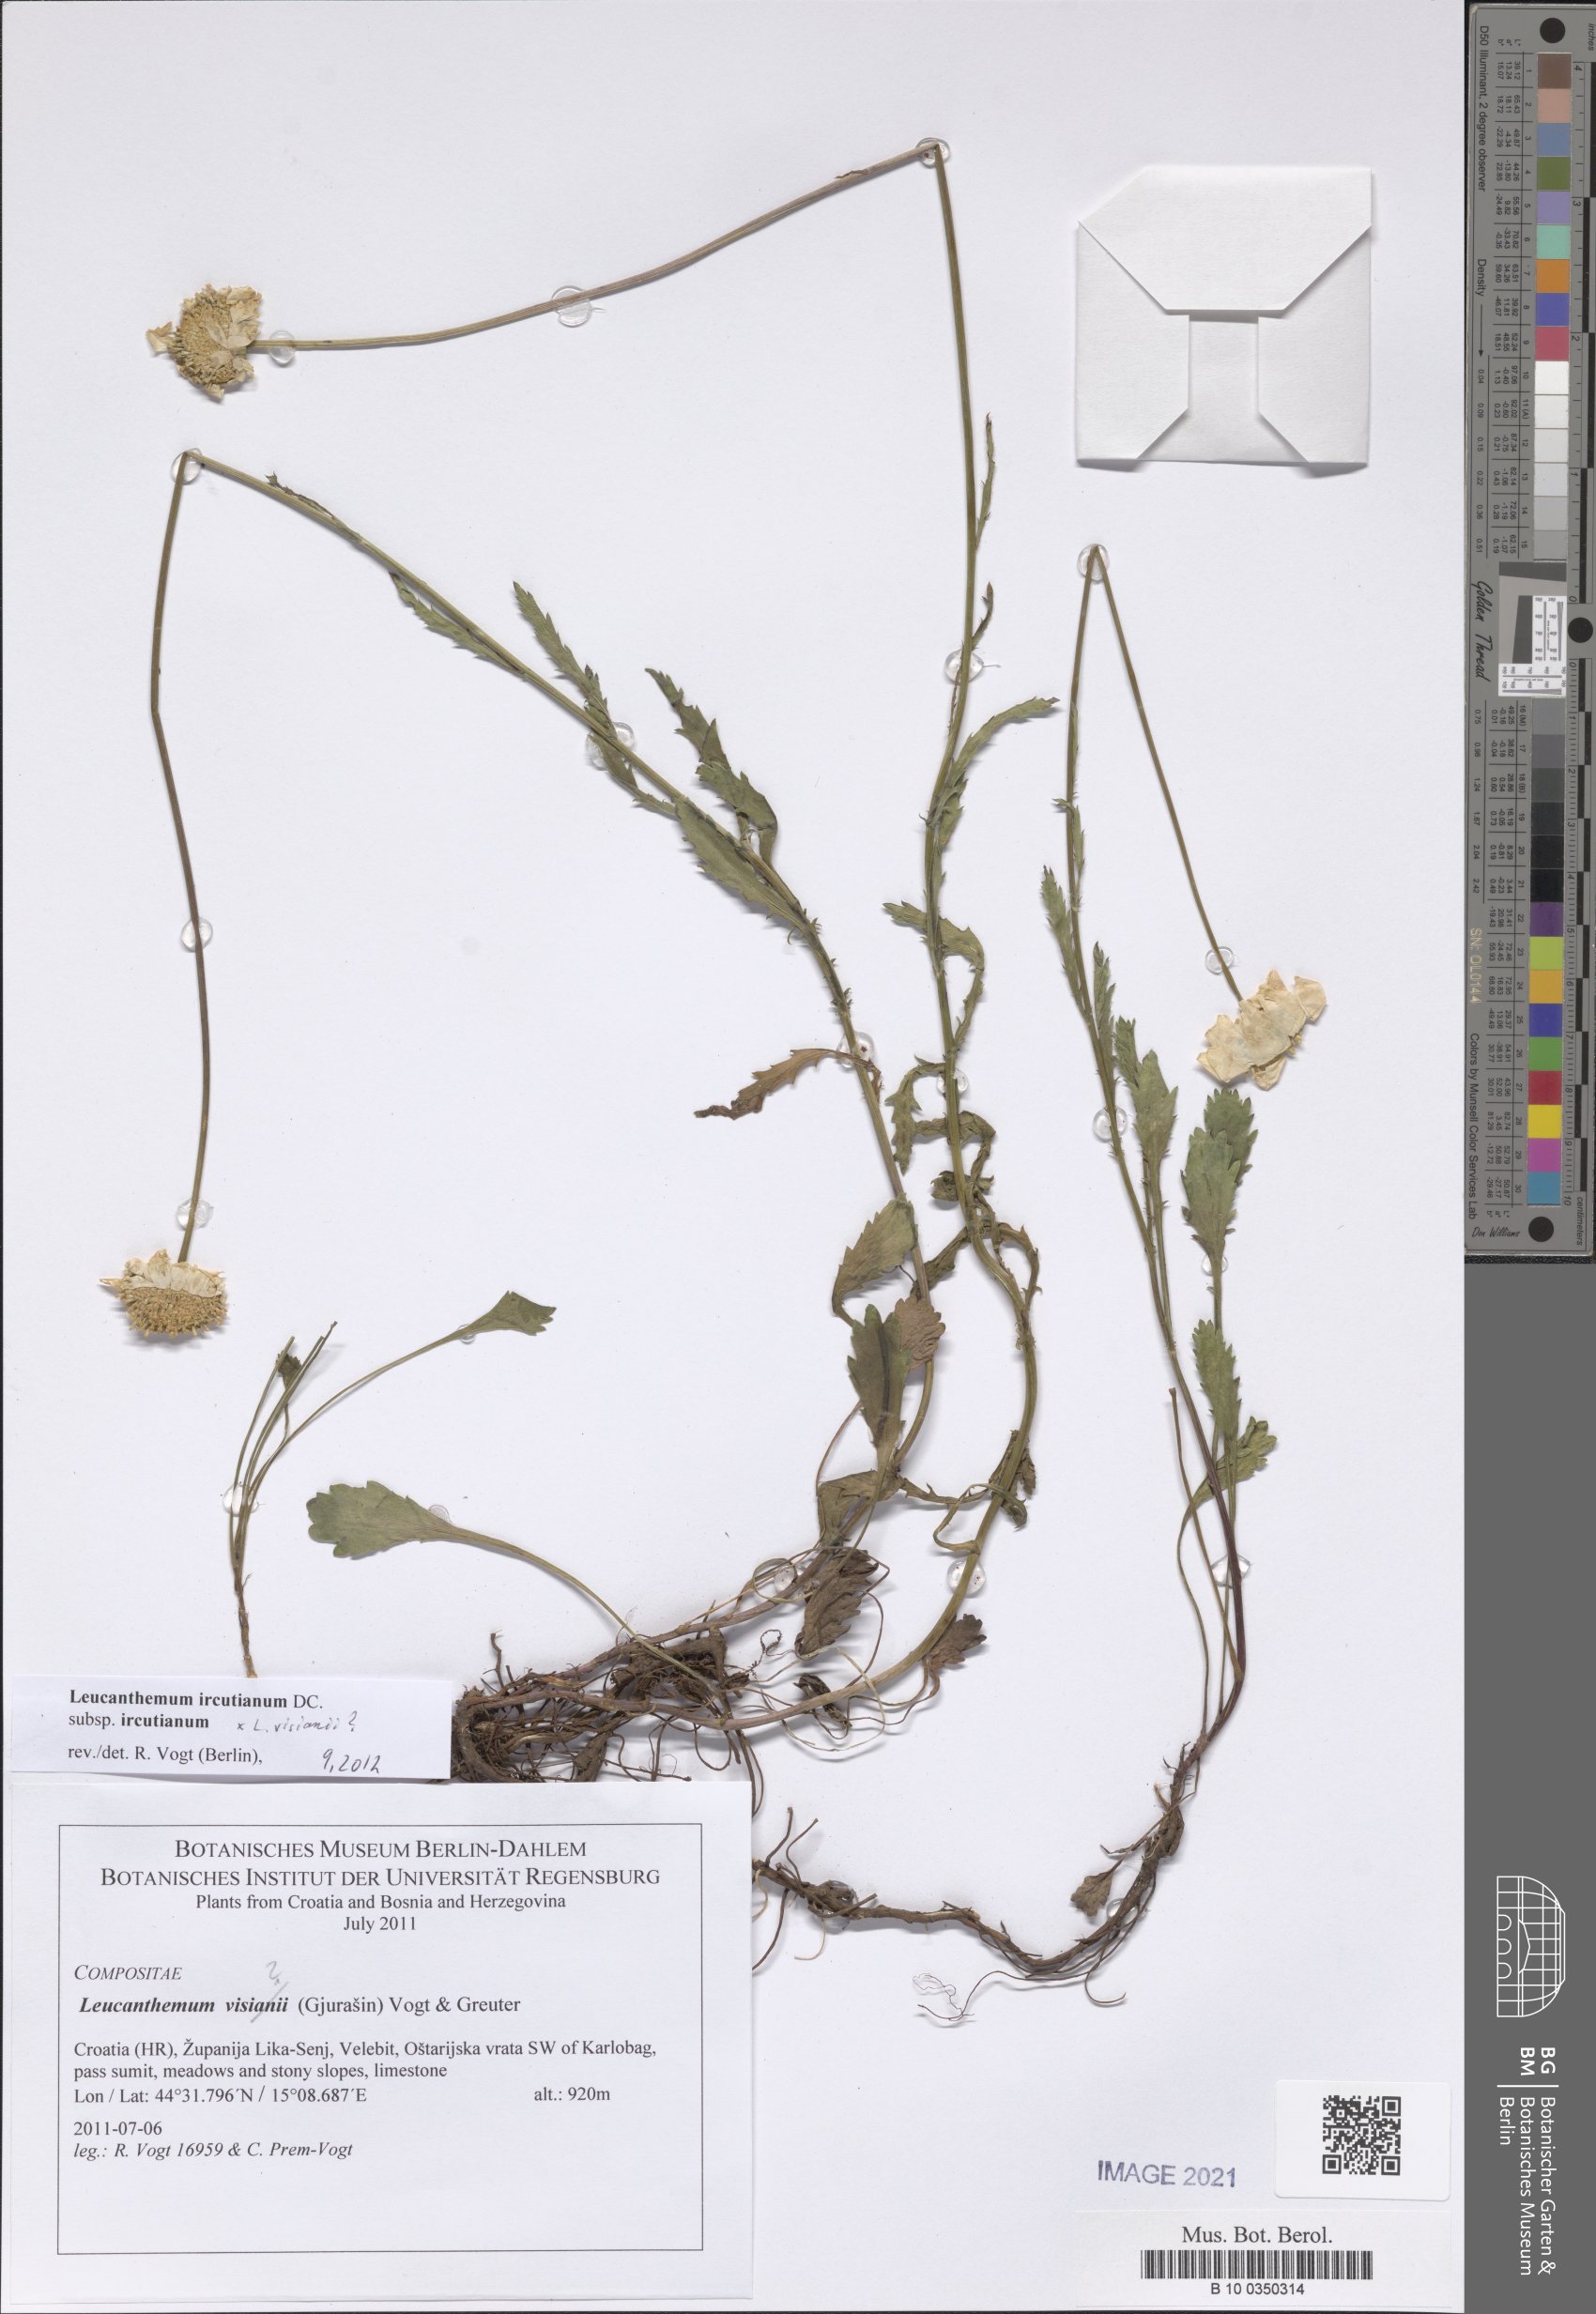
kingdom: Plantae
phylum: Tracheophyta
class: Magnoliopsida
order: Asterales
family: Asteraceae
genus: Leucanthemum
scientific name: Leucanthemum ircutianum
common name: Daisy
